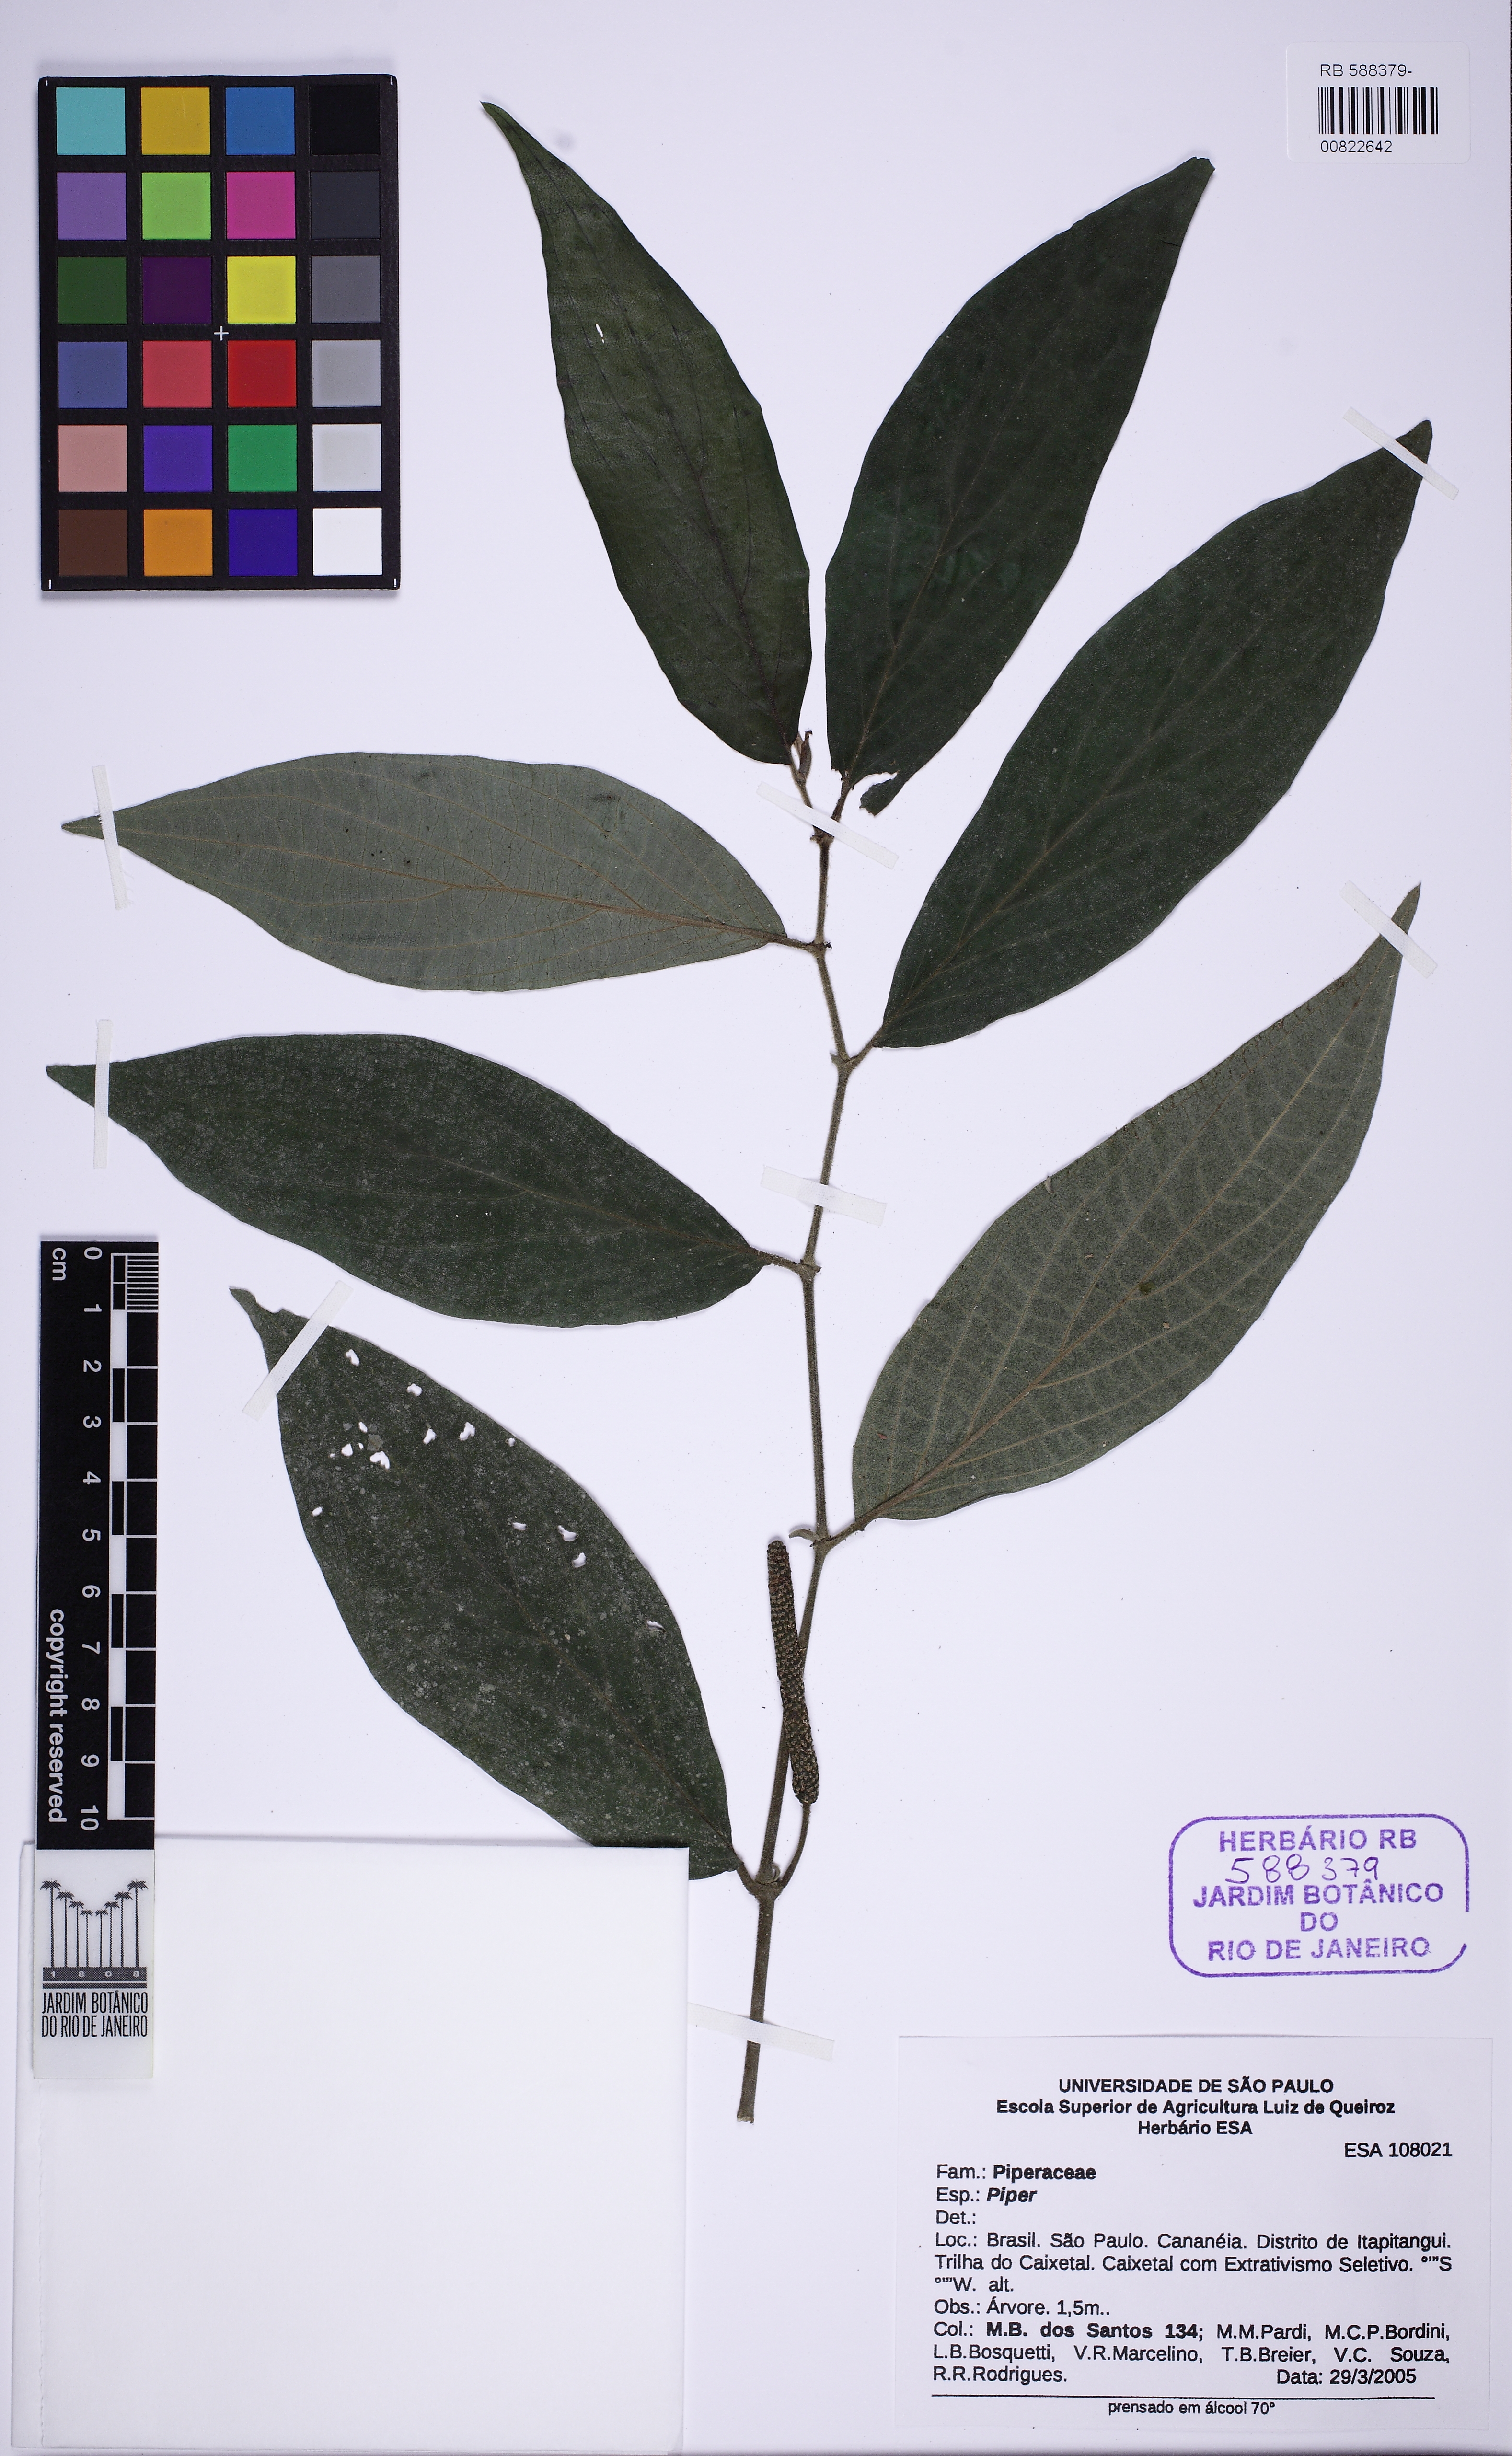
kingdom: Plantae
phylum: Tracheophyta
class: Magnoliopsida
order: Piperales
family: Piperaceae
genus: Piper
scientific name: Piper
